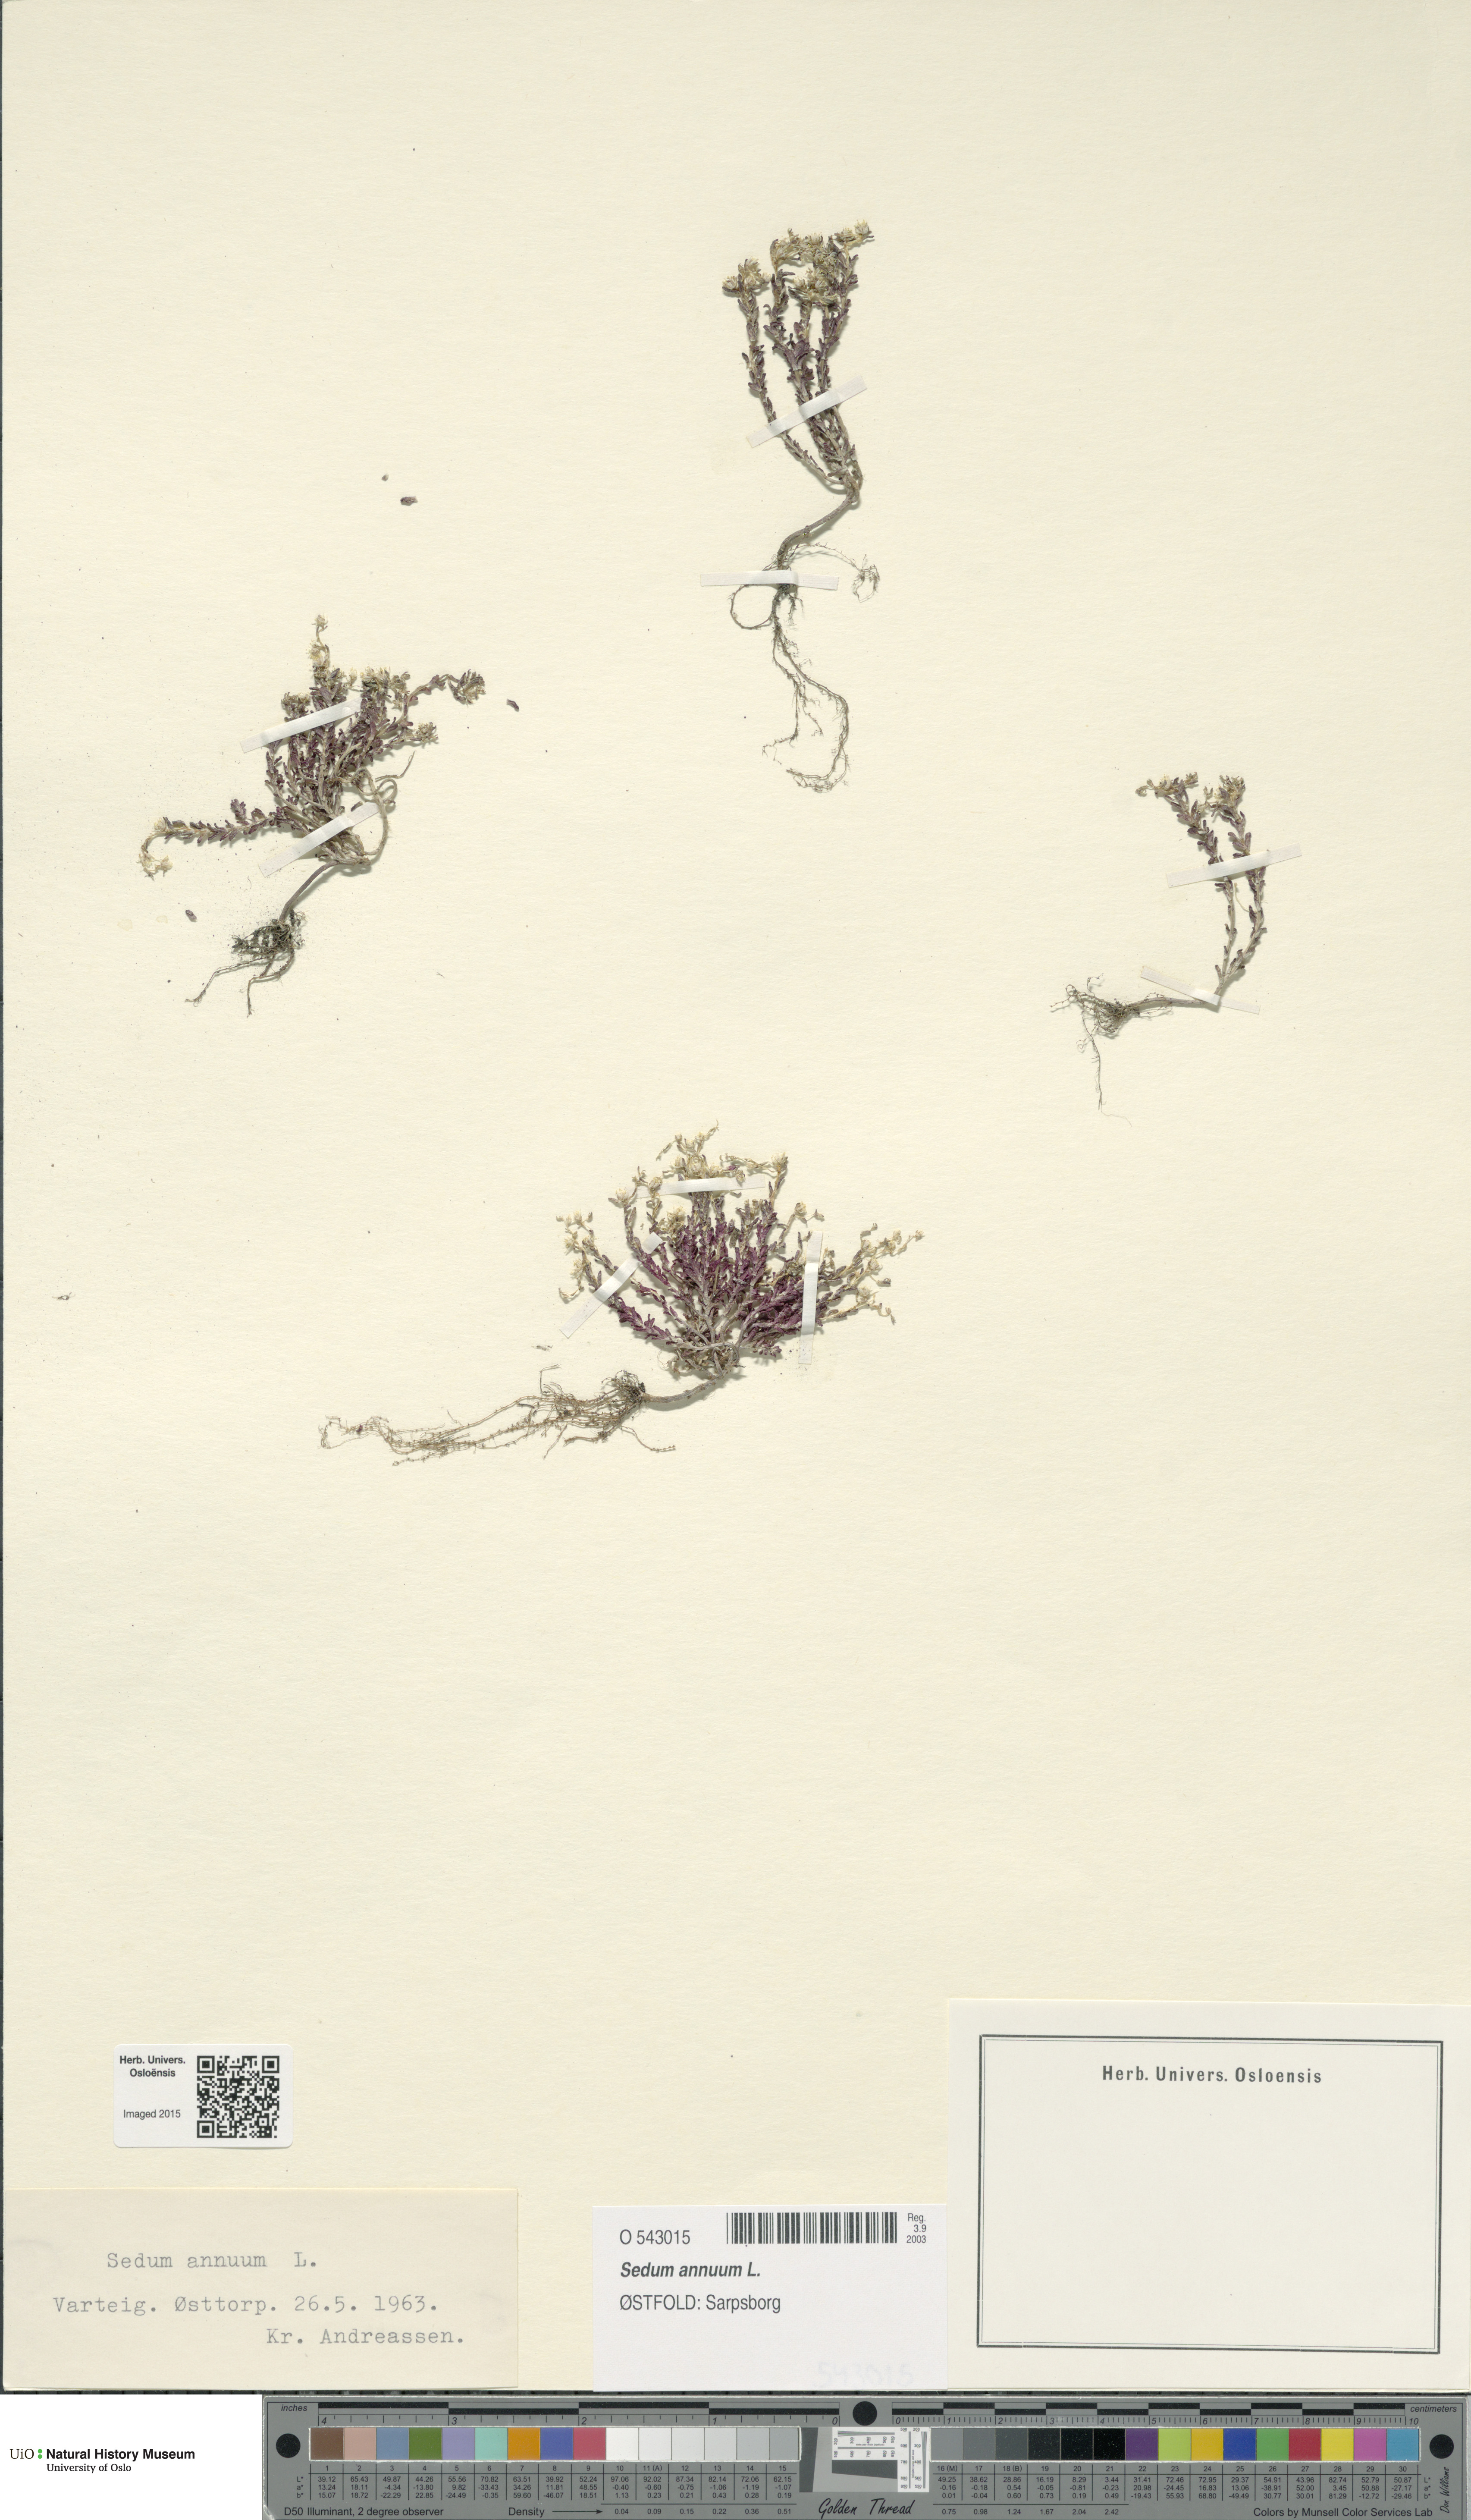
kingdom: Plantae
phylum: Tracheophyta
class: Magnoliopsida
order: Saxifragales
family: Crassulaceae
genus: Sedum
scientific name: Sedum annuum
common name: Annual stonecrop
